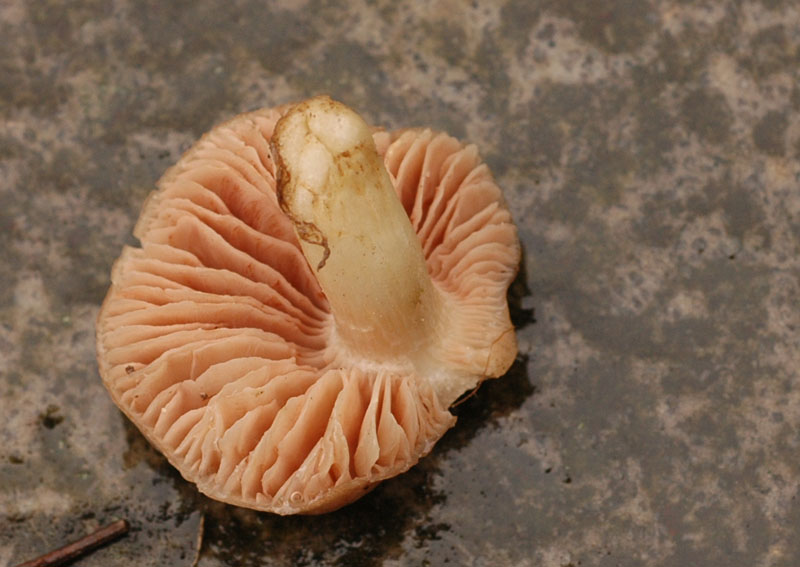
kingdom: Fungi
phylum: Basidiomycota
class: Agaricomycetes
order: Agaricales
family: Entolomataceae
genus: Entoloma
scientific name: Entoloma prunuloides
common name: mel-rødblad
